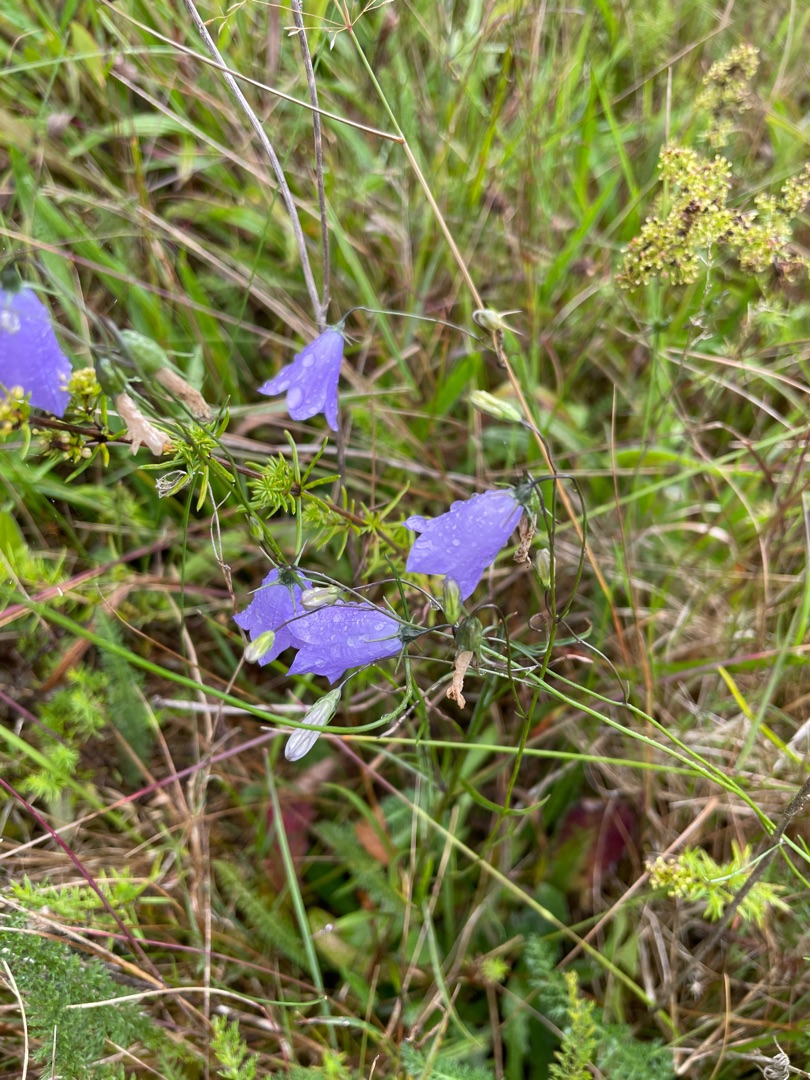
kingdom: Plantae
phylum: Tracheophyta
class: Magnoliopsida
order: Asterales
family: Campanulaceae
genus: Campanula
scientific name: Campanula rotundifolia
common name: Liden klokke
